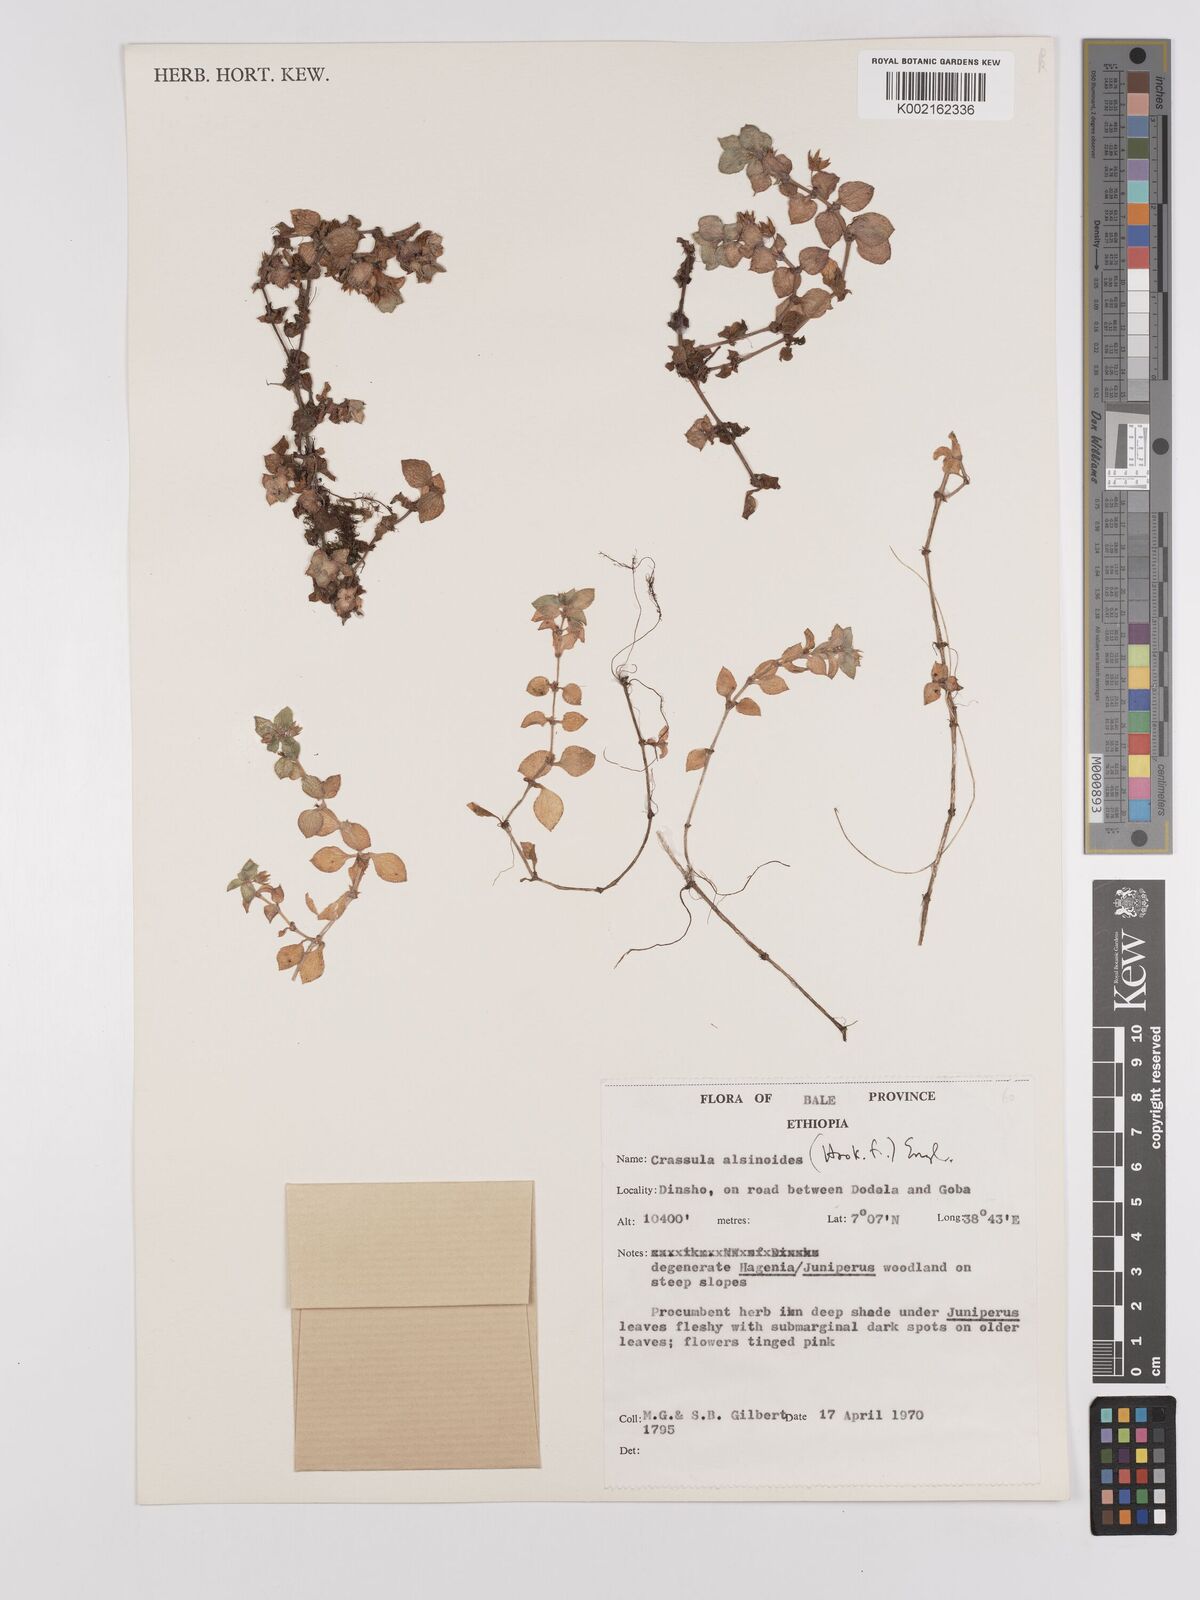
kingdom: Plantae
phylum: Tracheophyta
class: Magnoliopsida
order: Saxifragales
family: Crassulaceae
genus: Crassula
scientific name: Crassula alsinoides
